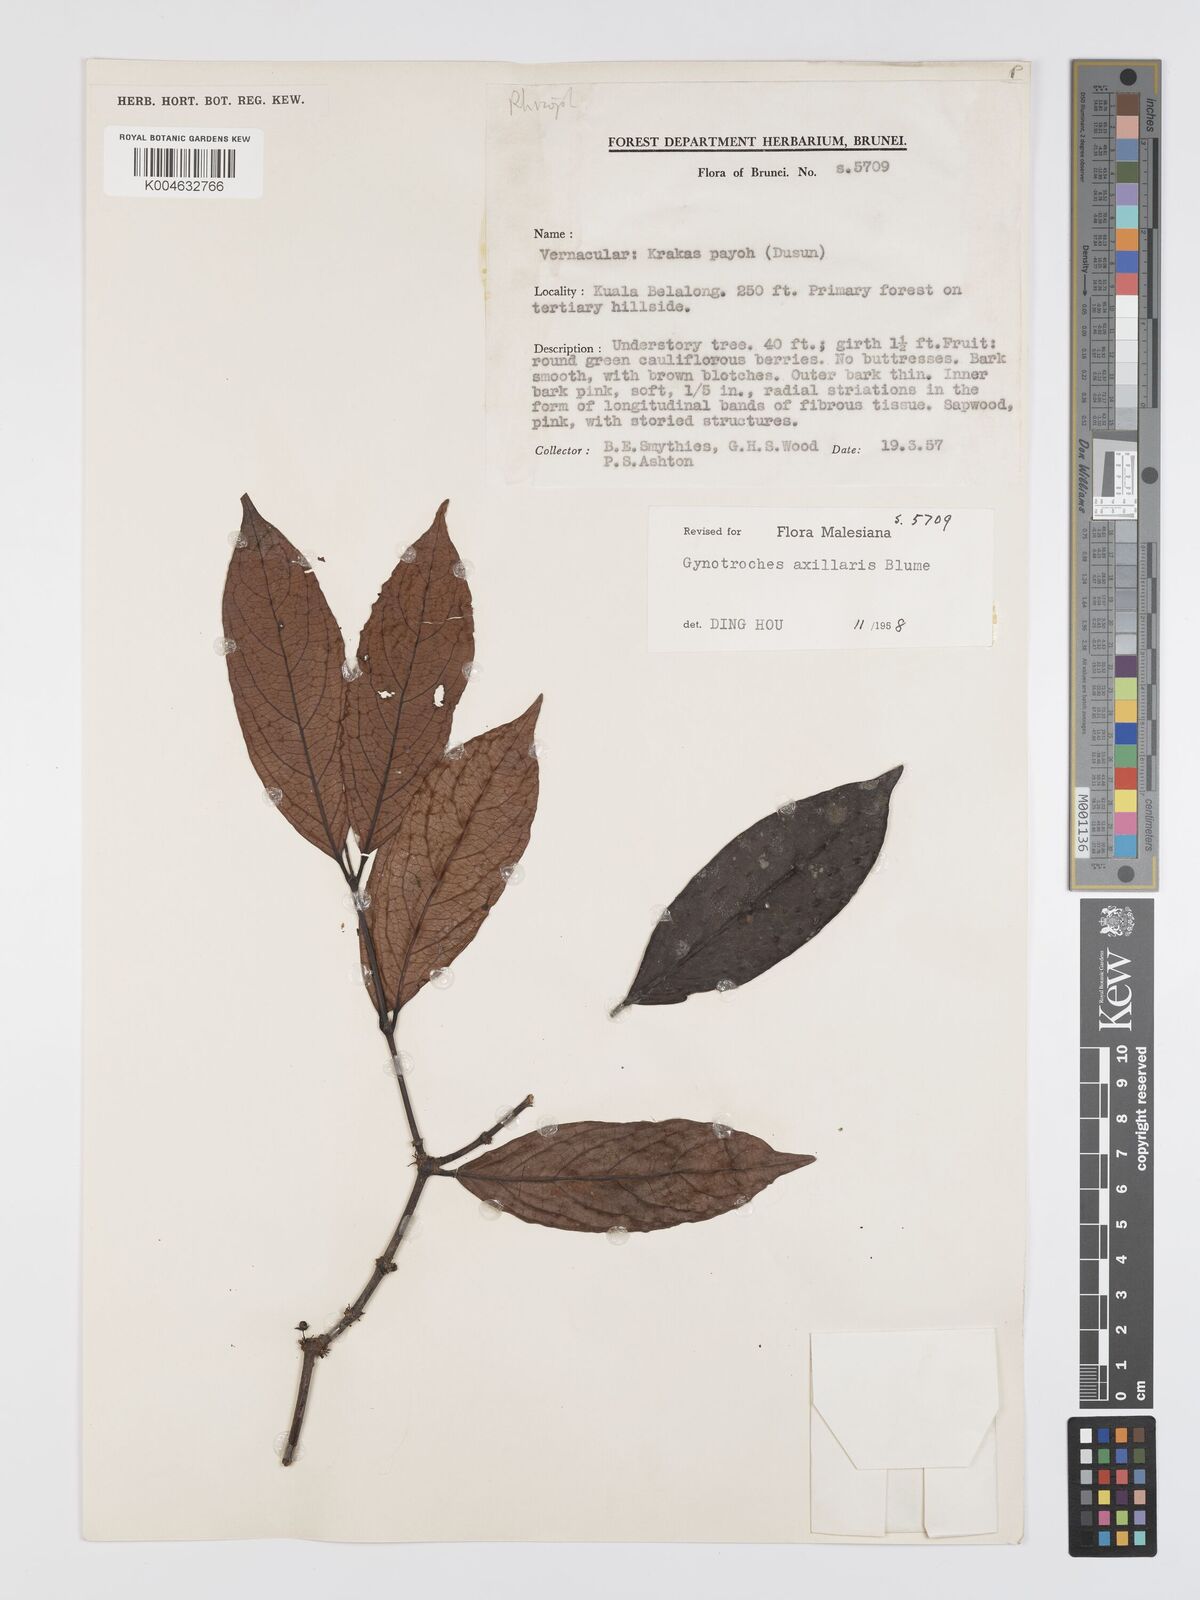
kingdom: Plantae
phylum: Tracheophyta
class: Magnoliopsida
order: Malpighiales
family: Rhizophoraceae
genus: Gynotroches
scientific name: Gynotroches axillaris
